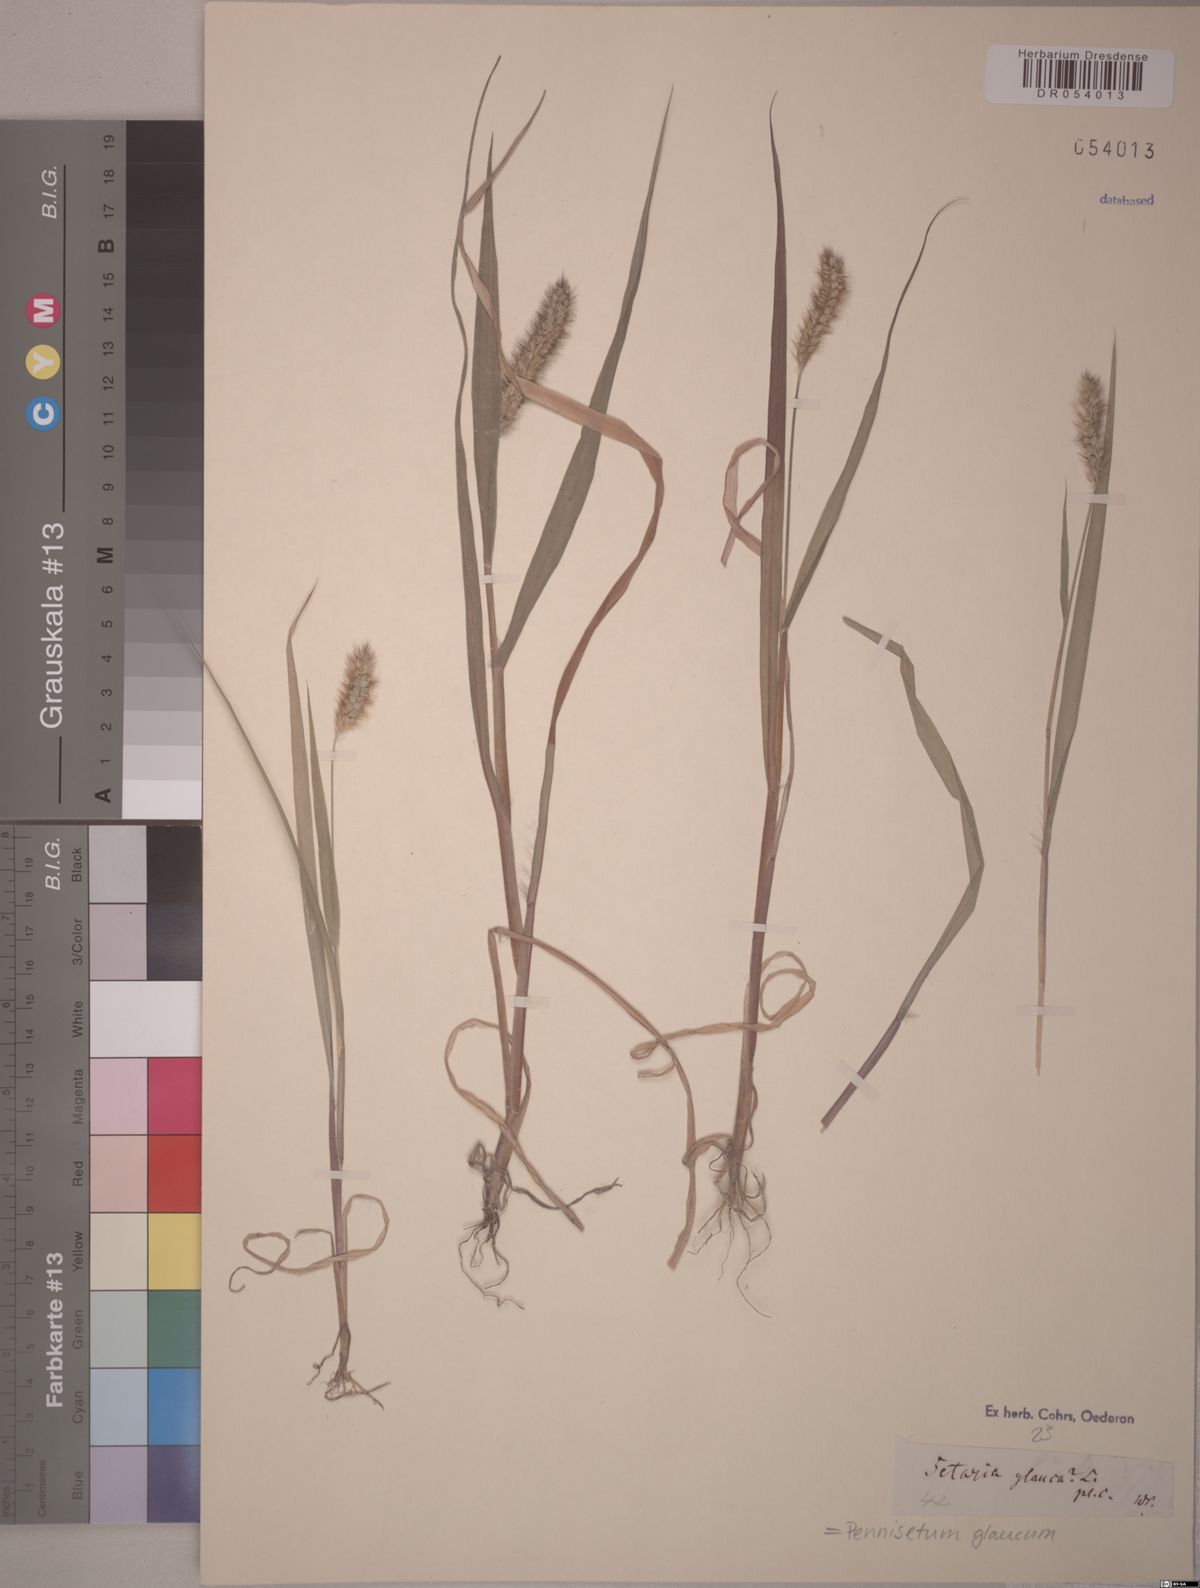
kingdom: Plantae
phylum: Tracheophyta
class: Liliopsida
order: Poales
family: Poaceae
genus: Cenchrus
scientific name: Cenchrus americanus
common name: Pearl millet
